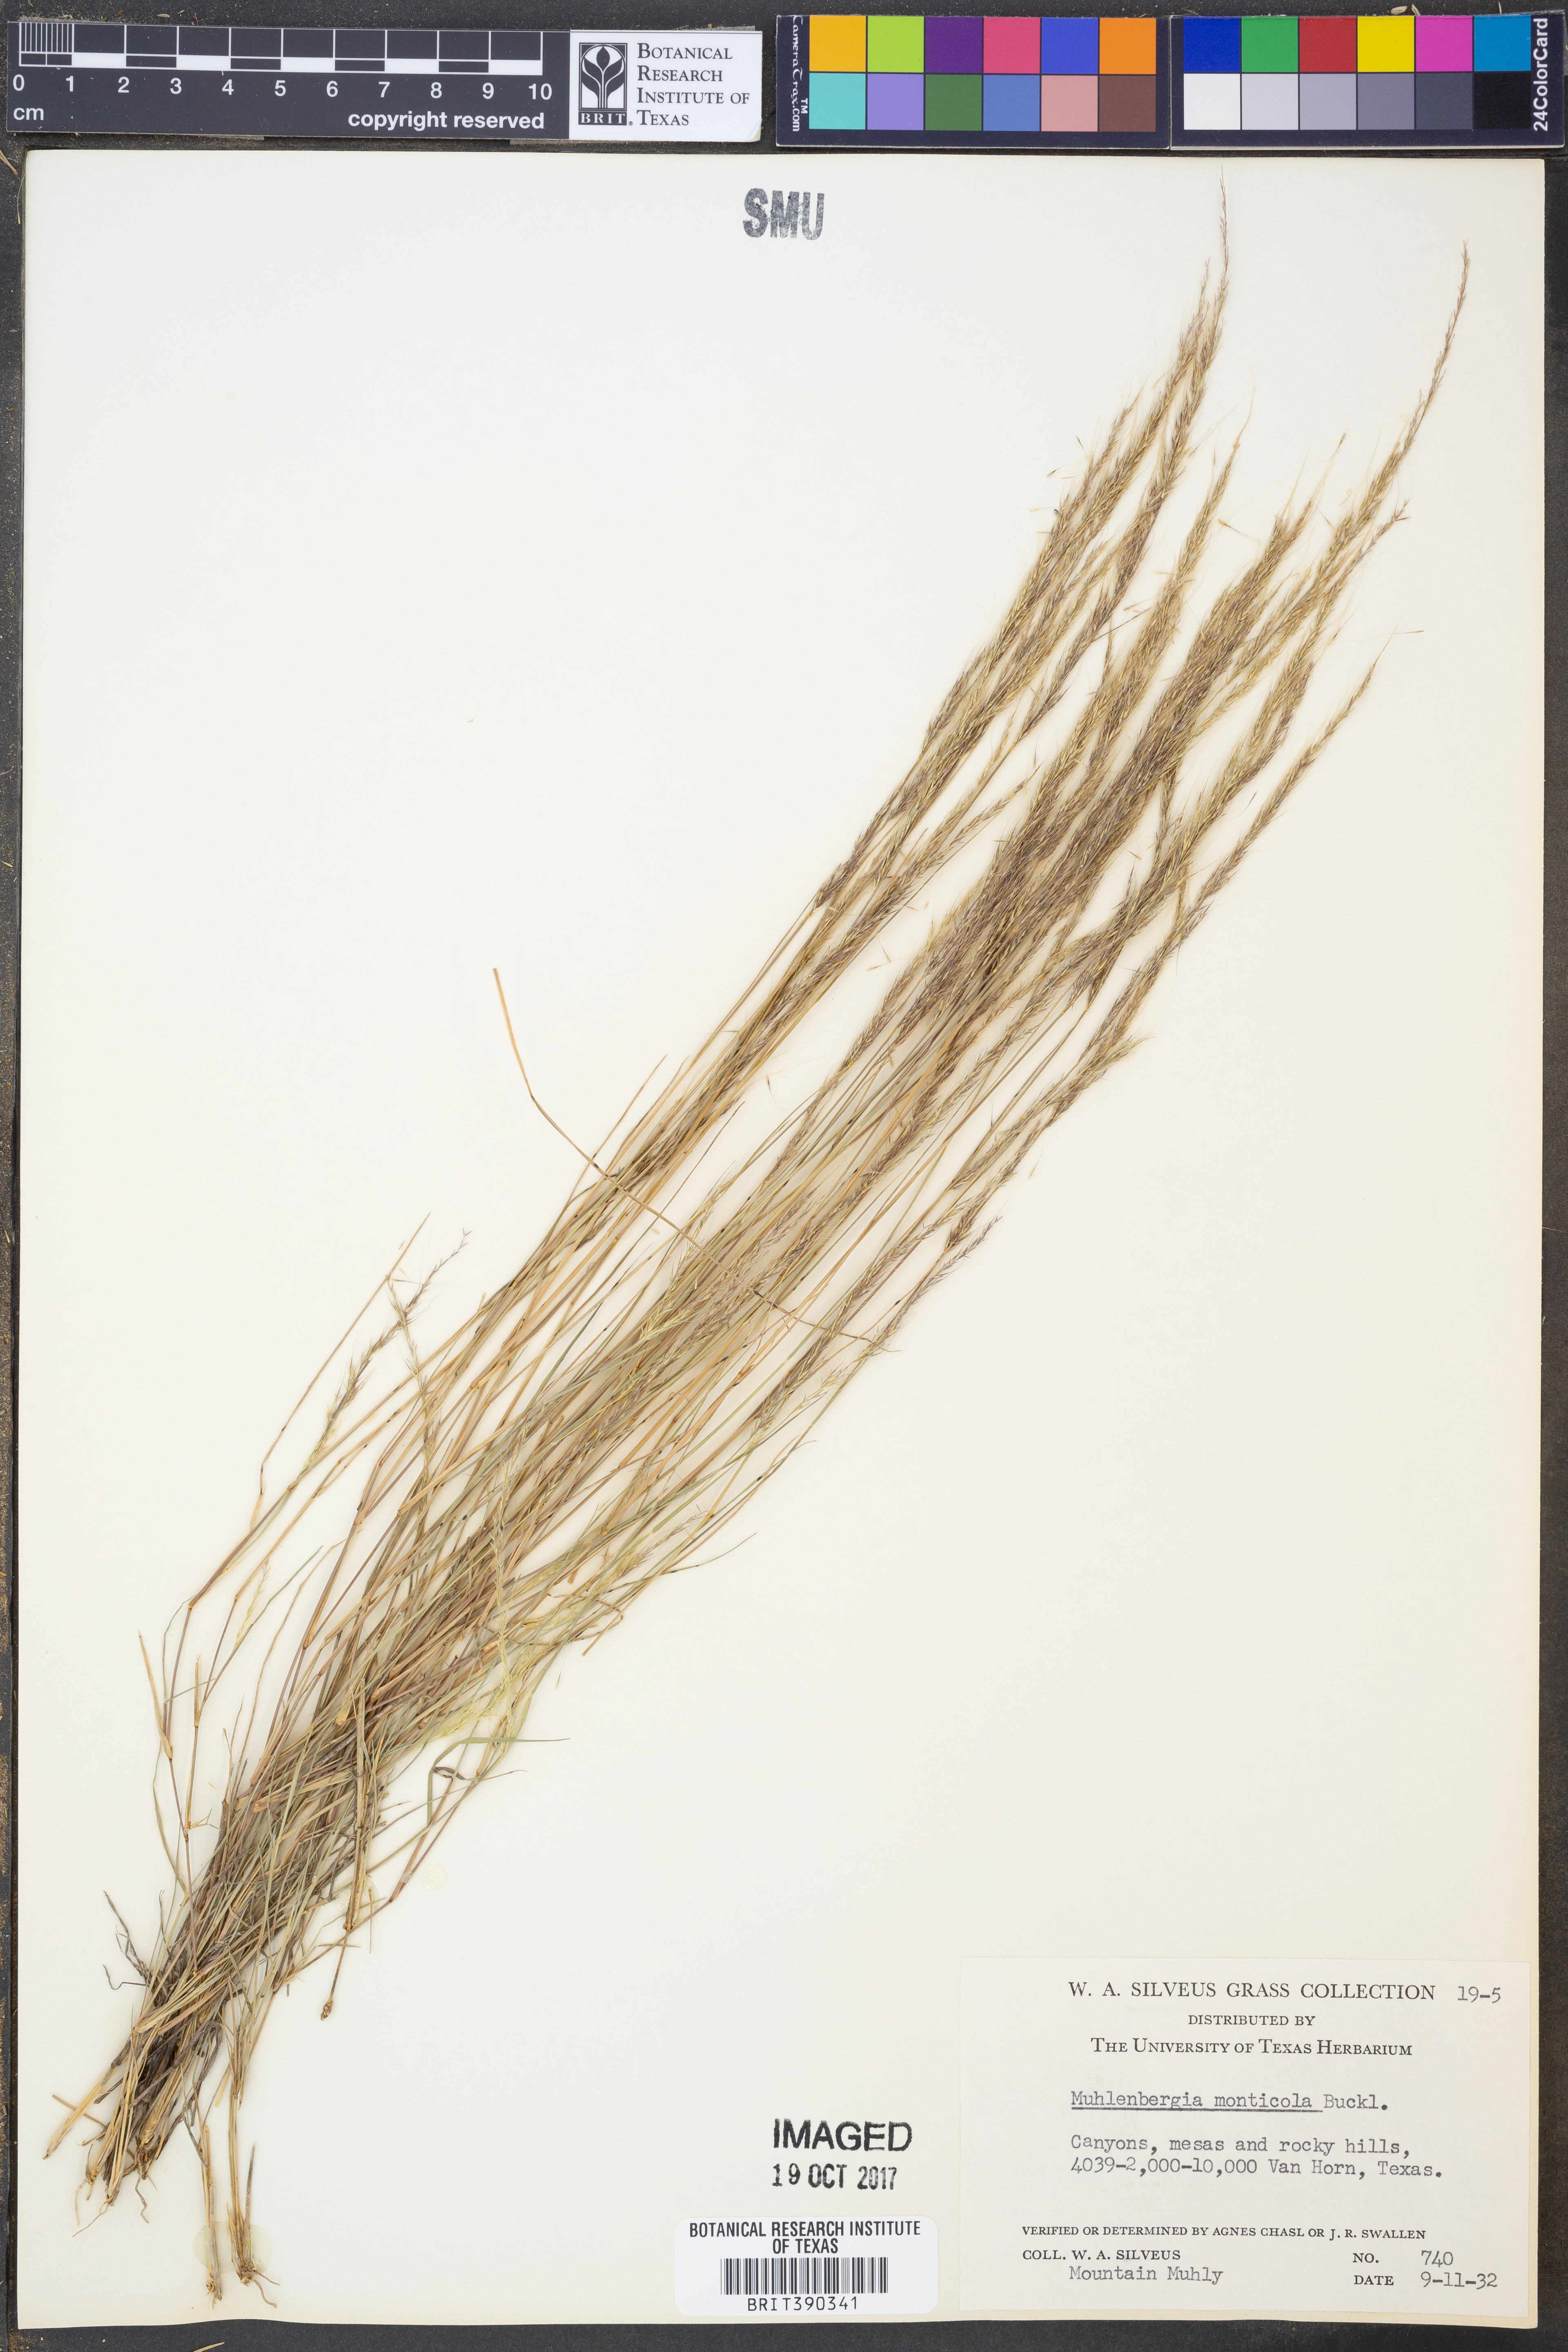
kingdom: Plantae
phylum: Tracheophyta
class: Liliopsida
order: Poales
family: Poaceae
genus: Muhlenbergia
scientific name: Muhlenbergia tenuifolia
